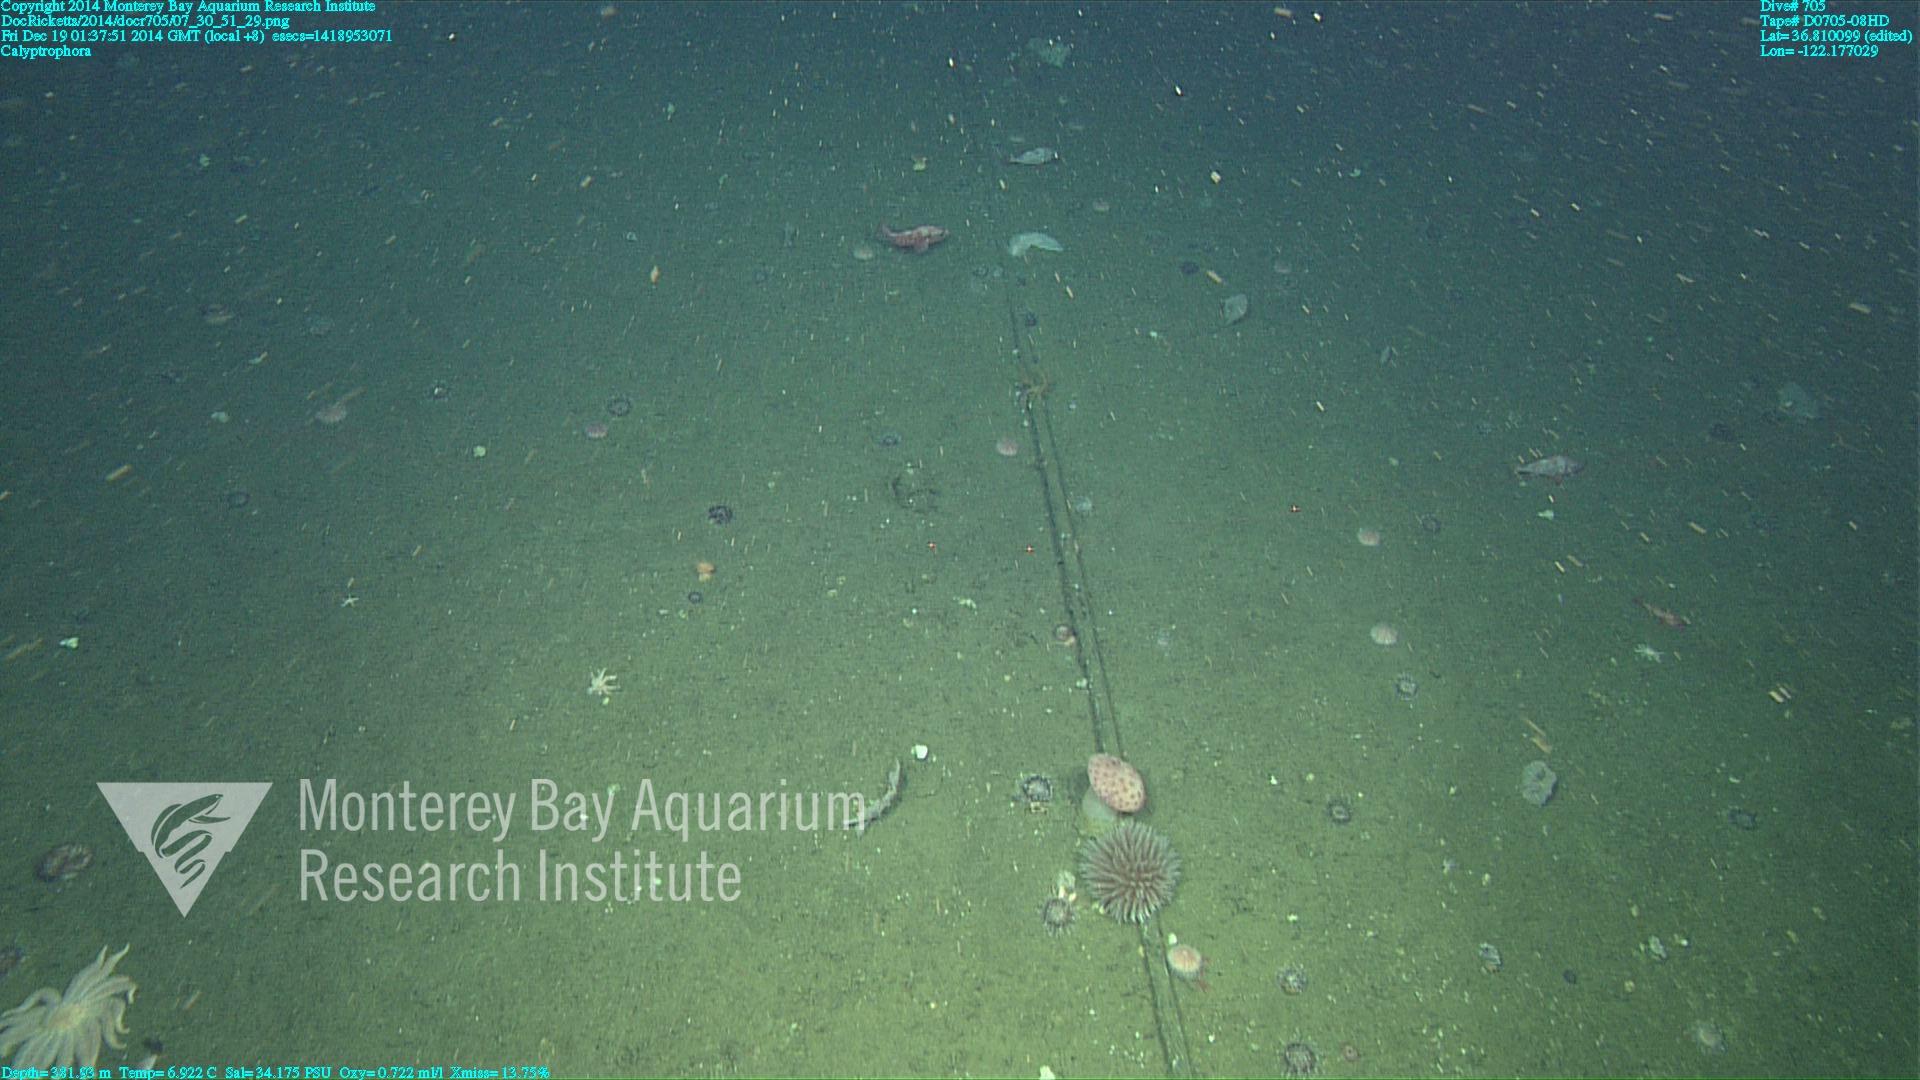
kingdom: Animalia
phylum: Cnidaria
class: Anthozoa
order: Scleralcyonacea
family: Primnoidae
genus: Calyptrophora
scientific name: Calyptrophora
